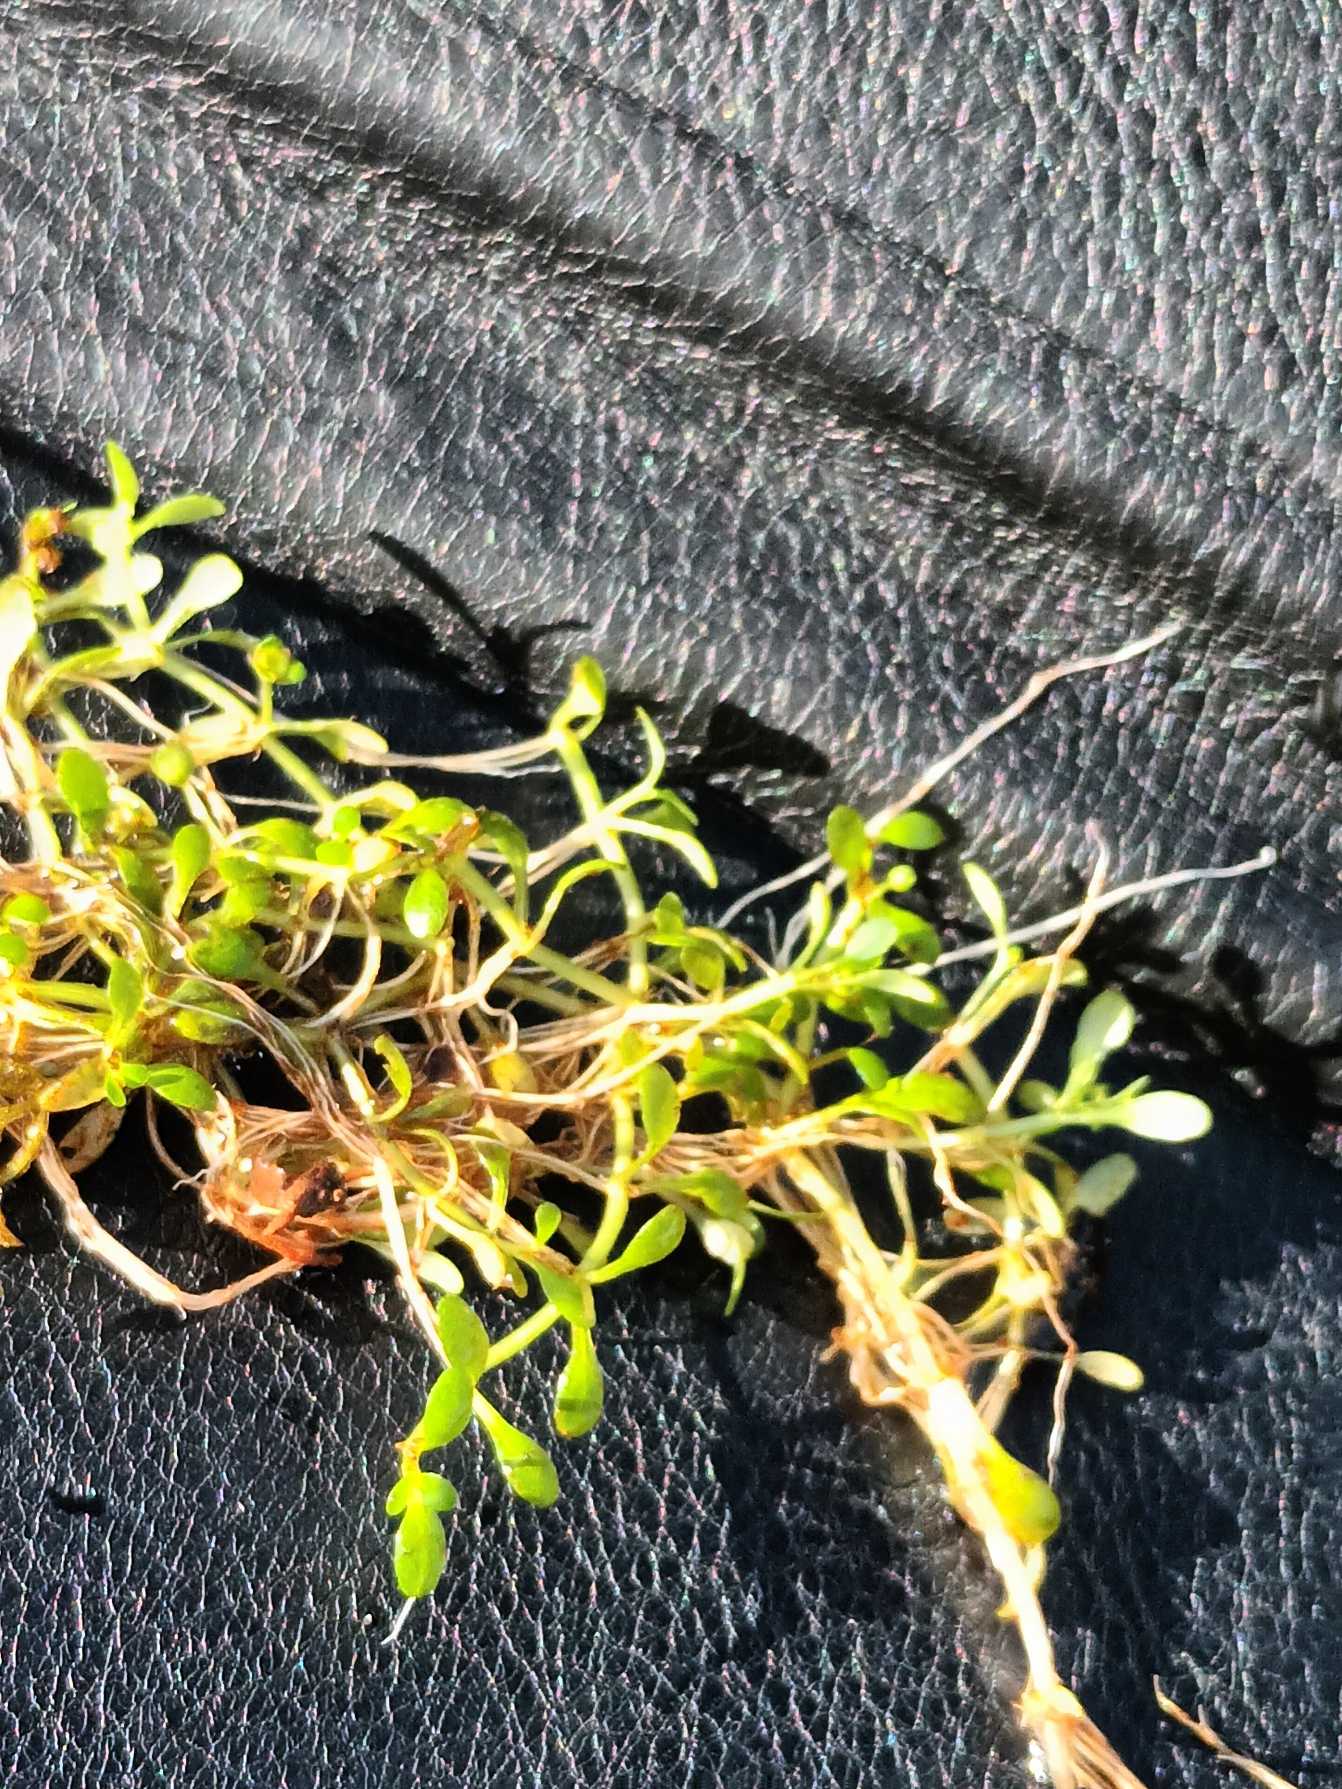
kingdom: Plantae
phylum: Tracheophyta
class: Magnoliopsida
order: Malpighiales
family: Elatinaceae
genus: Elatine
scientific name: Elatine hexandra
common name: Sekshannet bækarve
